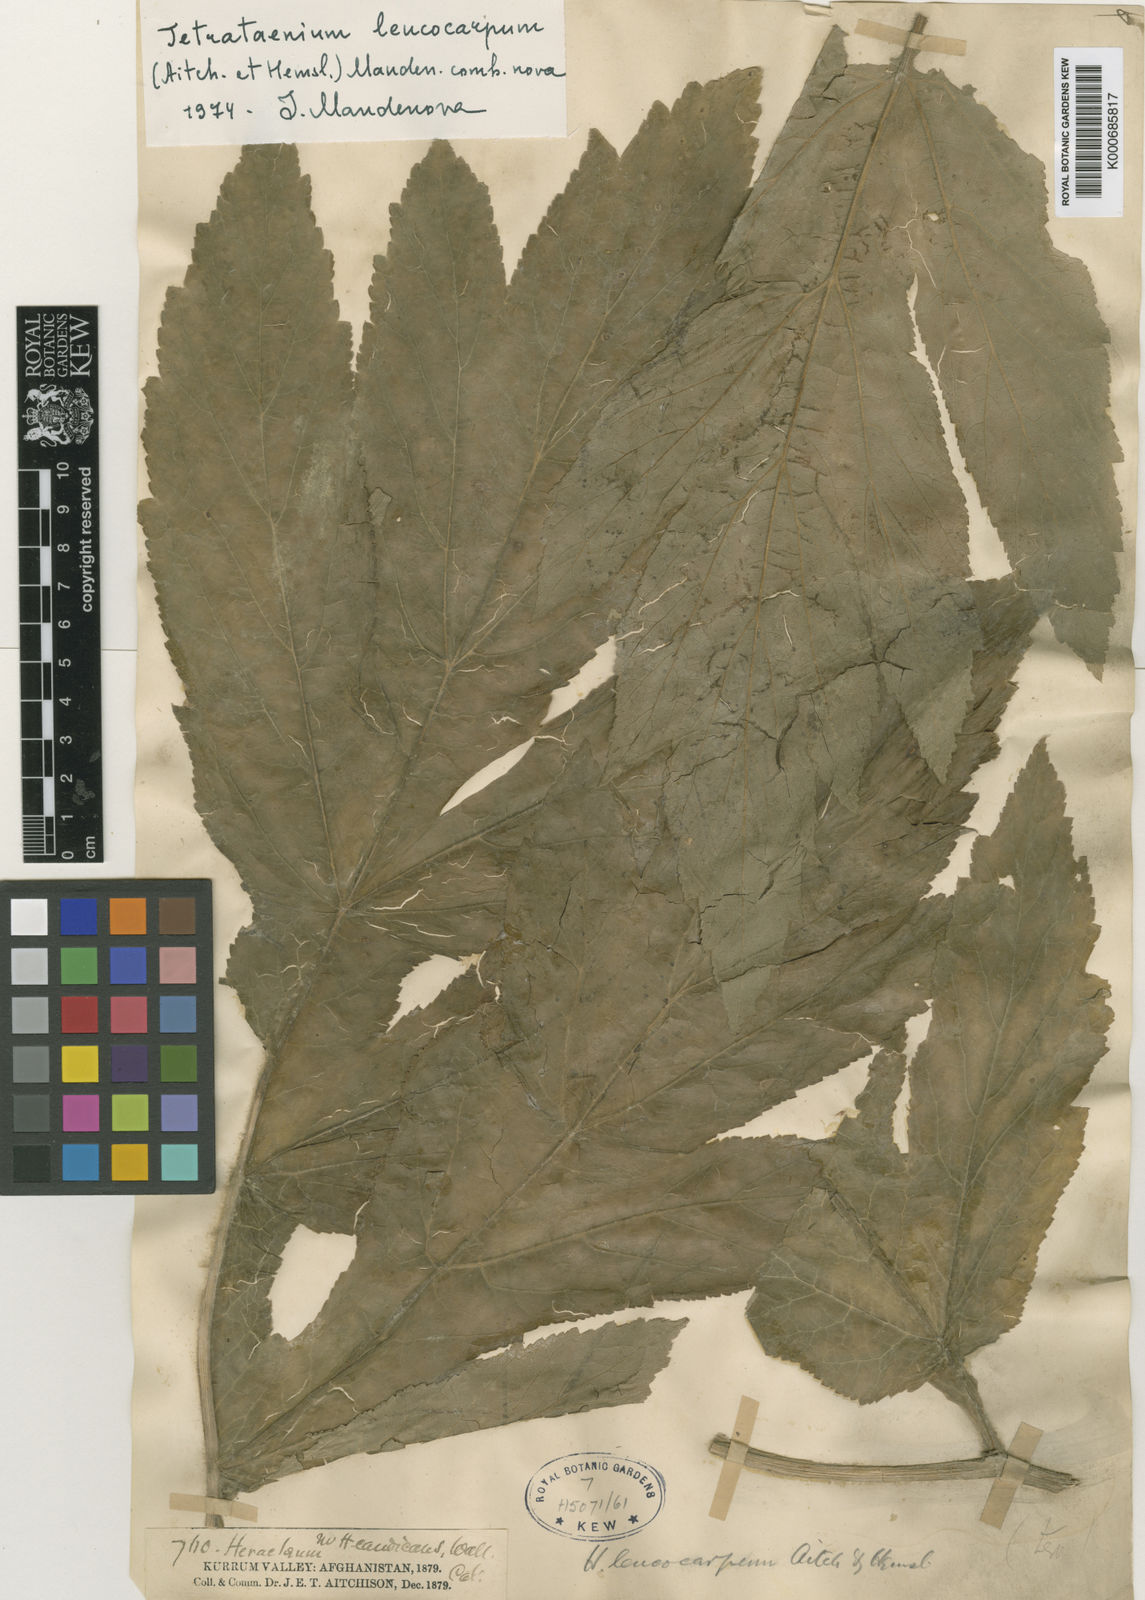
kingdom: Plantae
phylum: Tracheophyta
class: Magnoliopsida
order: Apiales
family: Apiaceae
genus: Tetrataenium
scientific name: Tetrataenium leucocarpum
